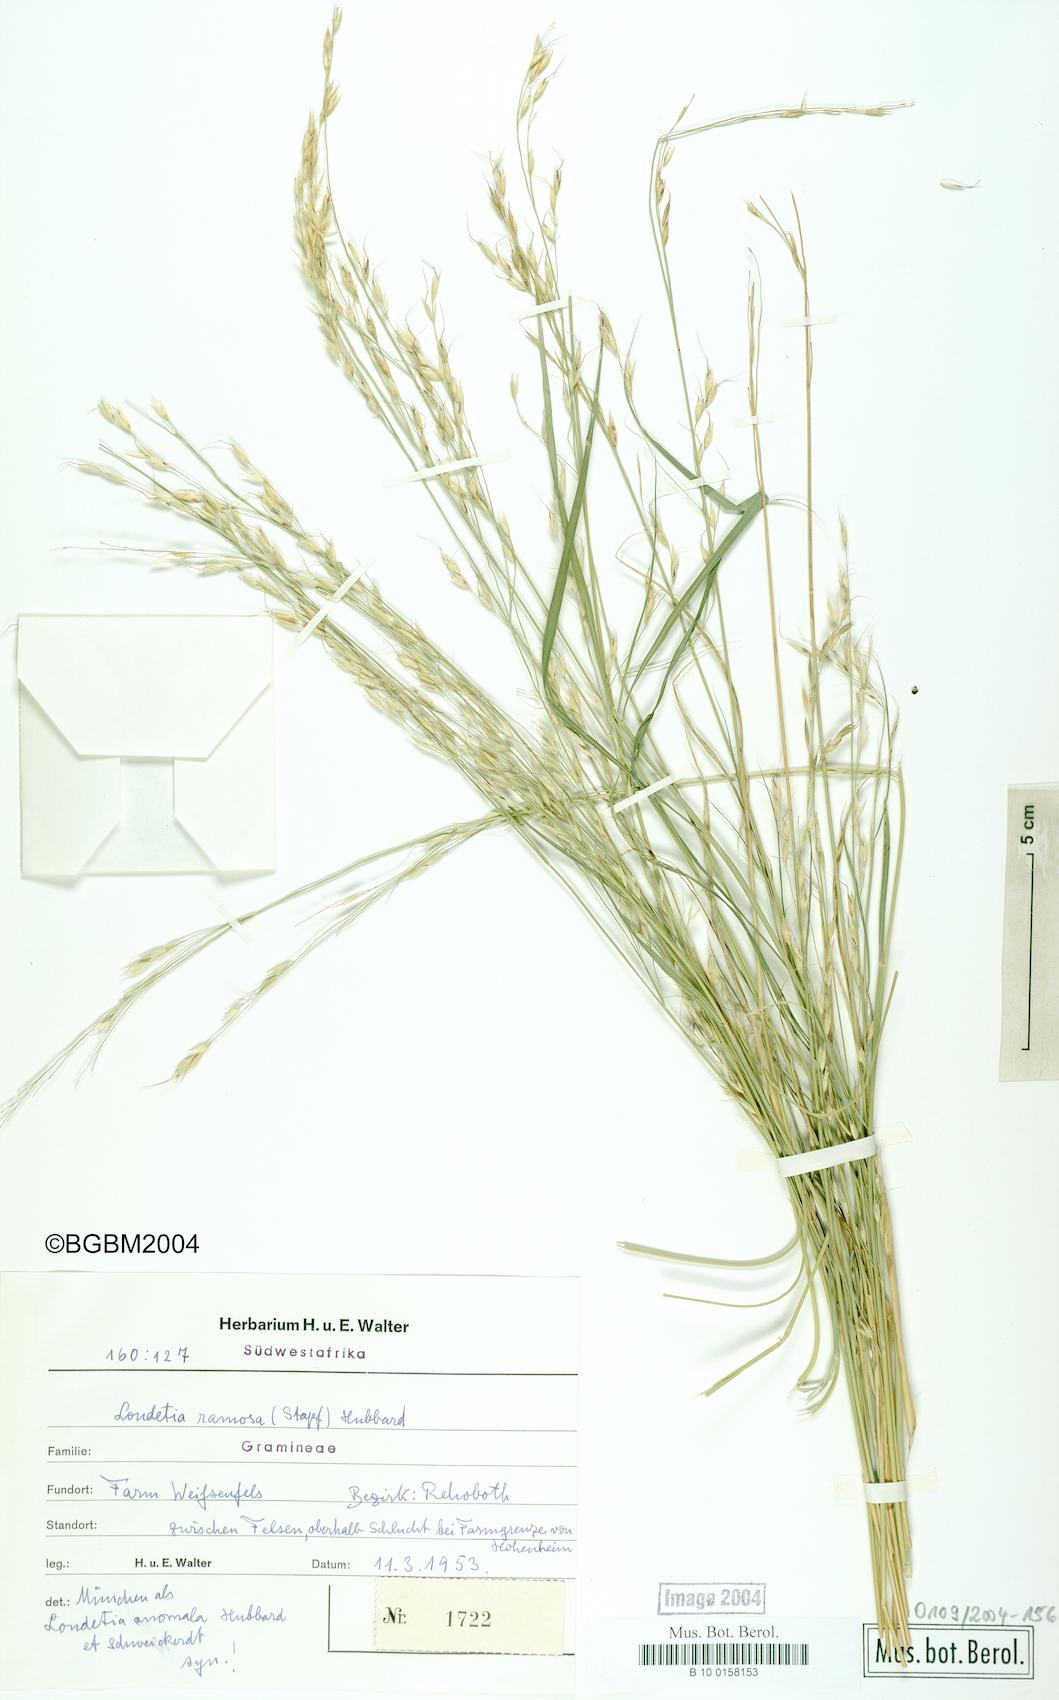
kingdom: Plantae
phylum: Tracheophyta
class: Liliopsida
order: Poales
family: Poaceae
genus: Danthoniopsis
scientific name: Danthoniopsis ramosa
